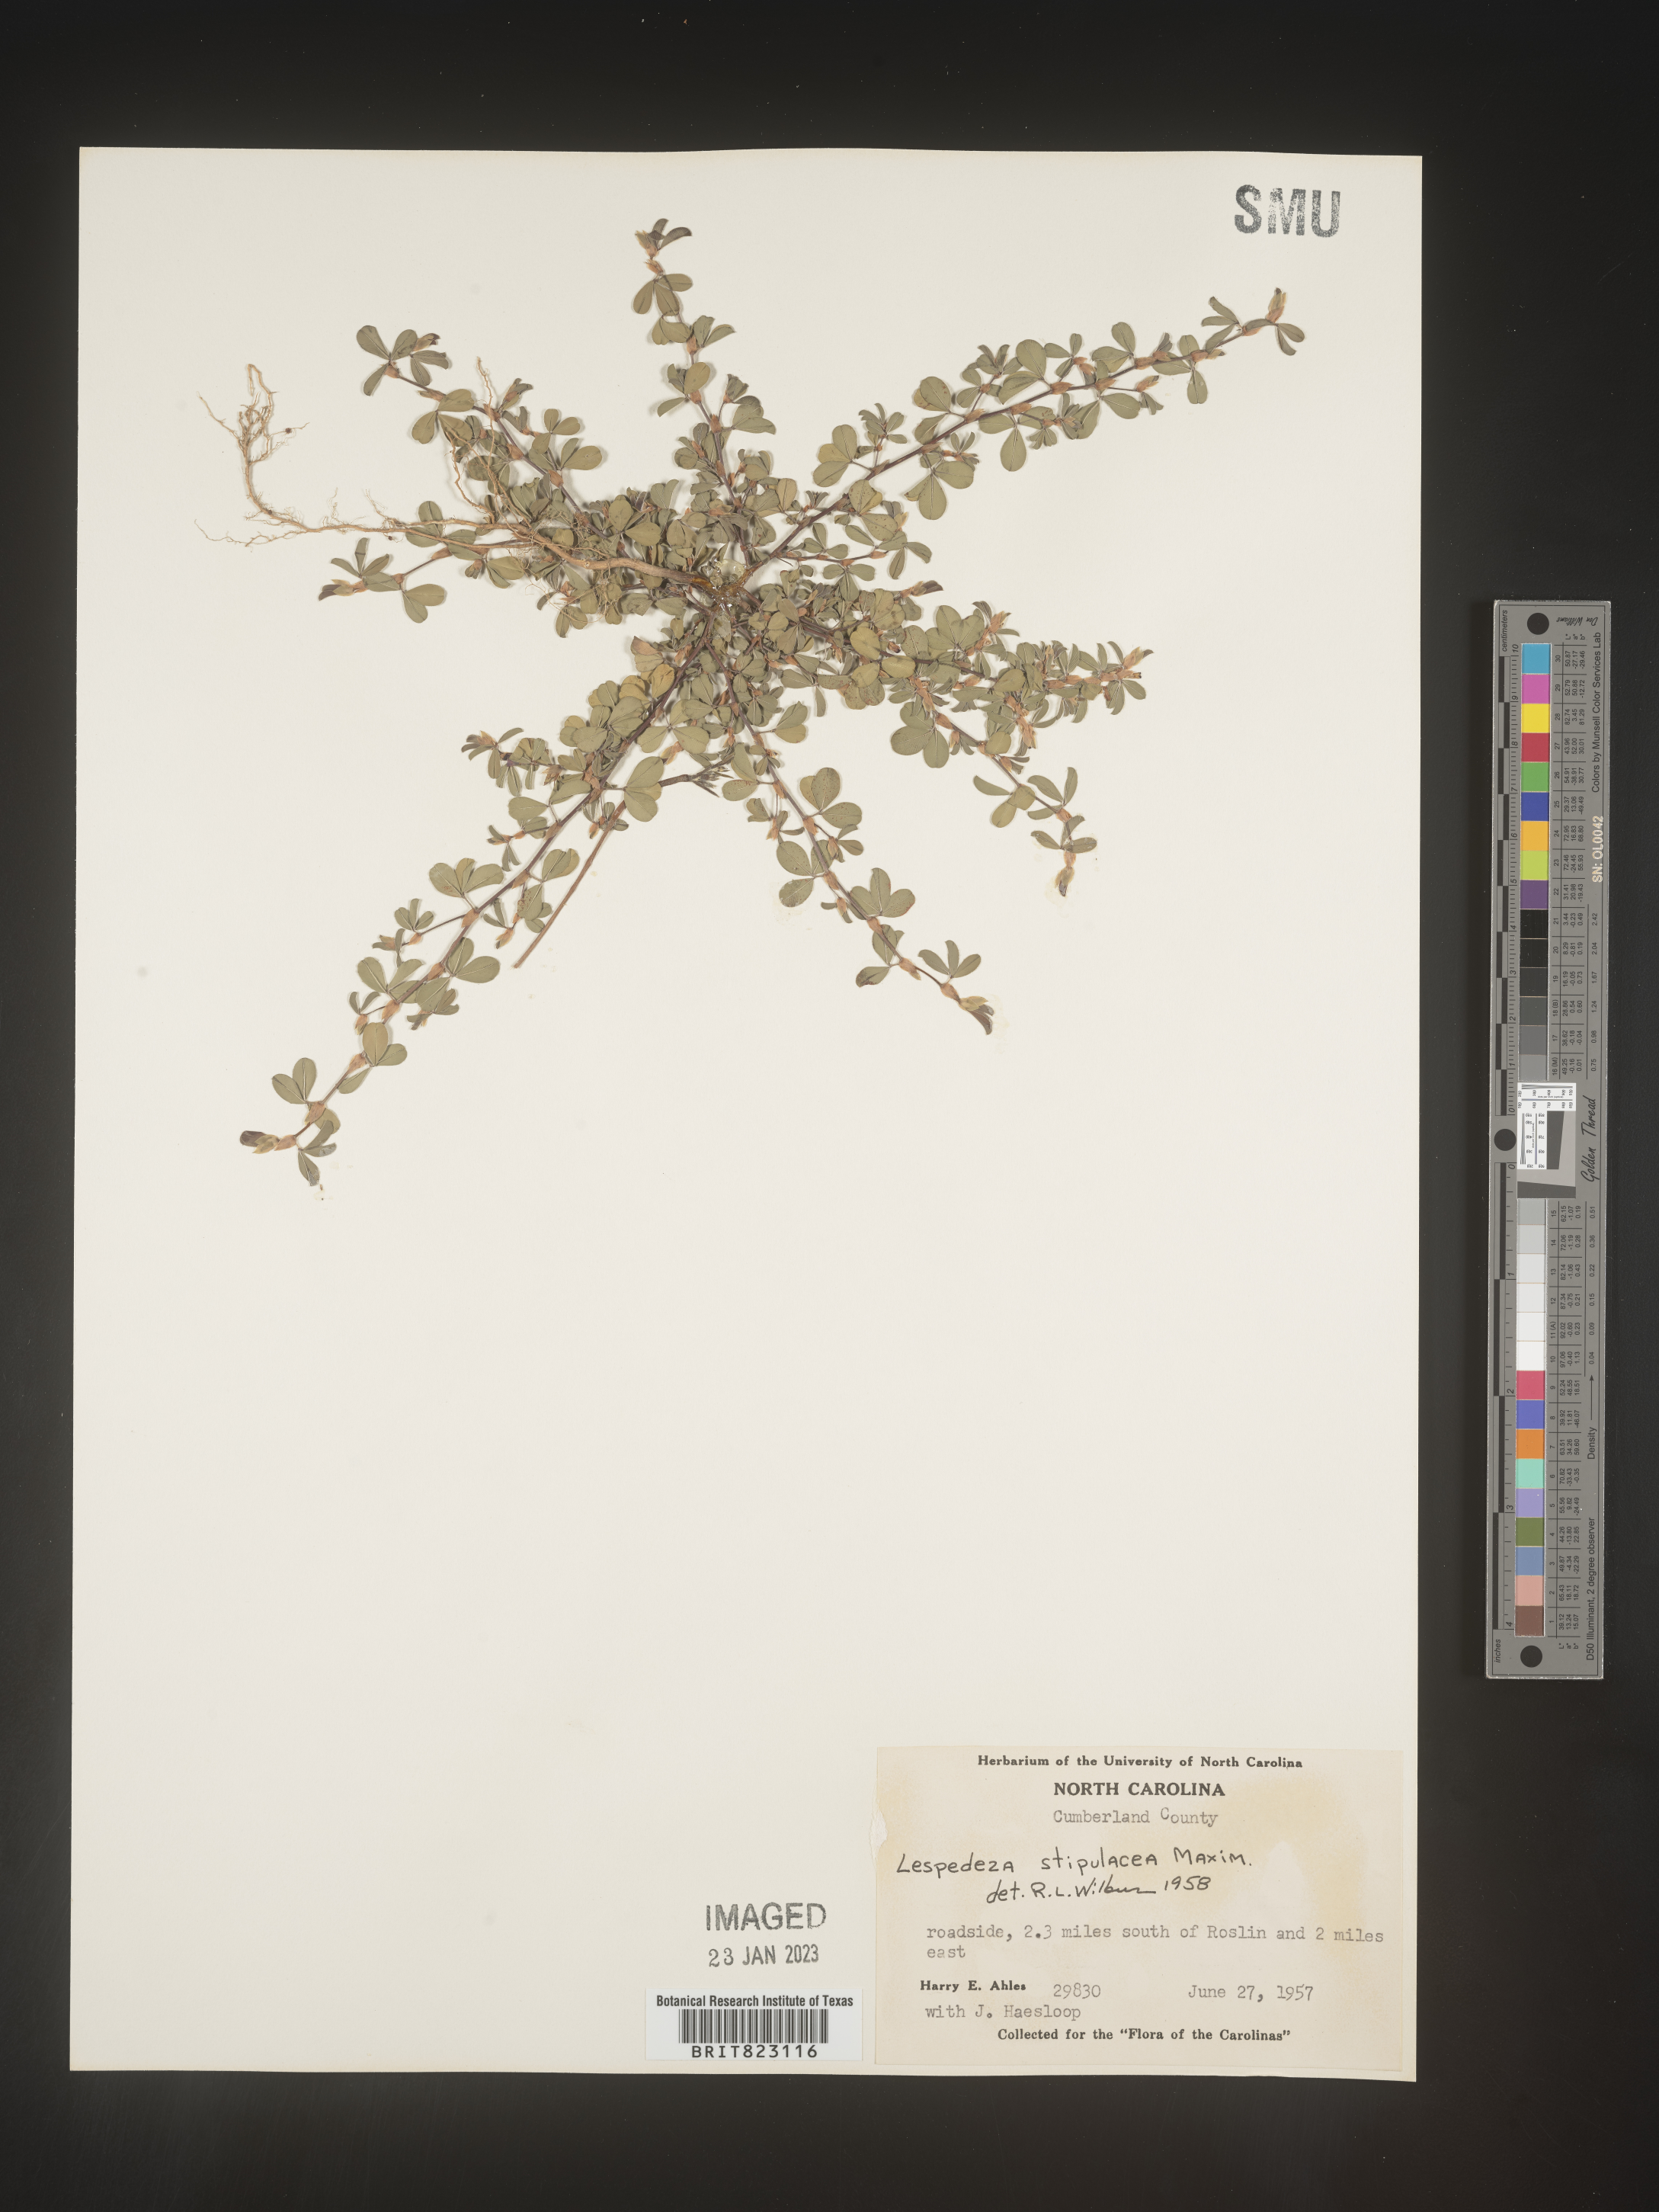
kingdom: Plantae
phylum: Tracheophyta
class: Magnoliopsida
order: Fabales
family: Fabaceae
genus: Lespedeza
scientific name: Lespedeza
